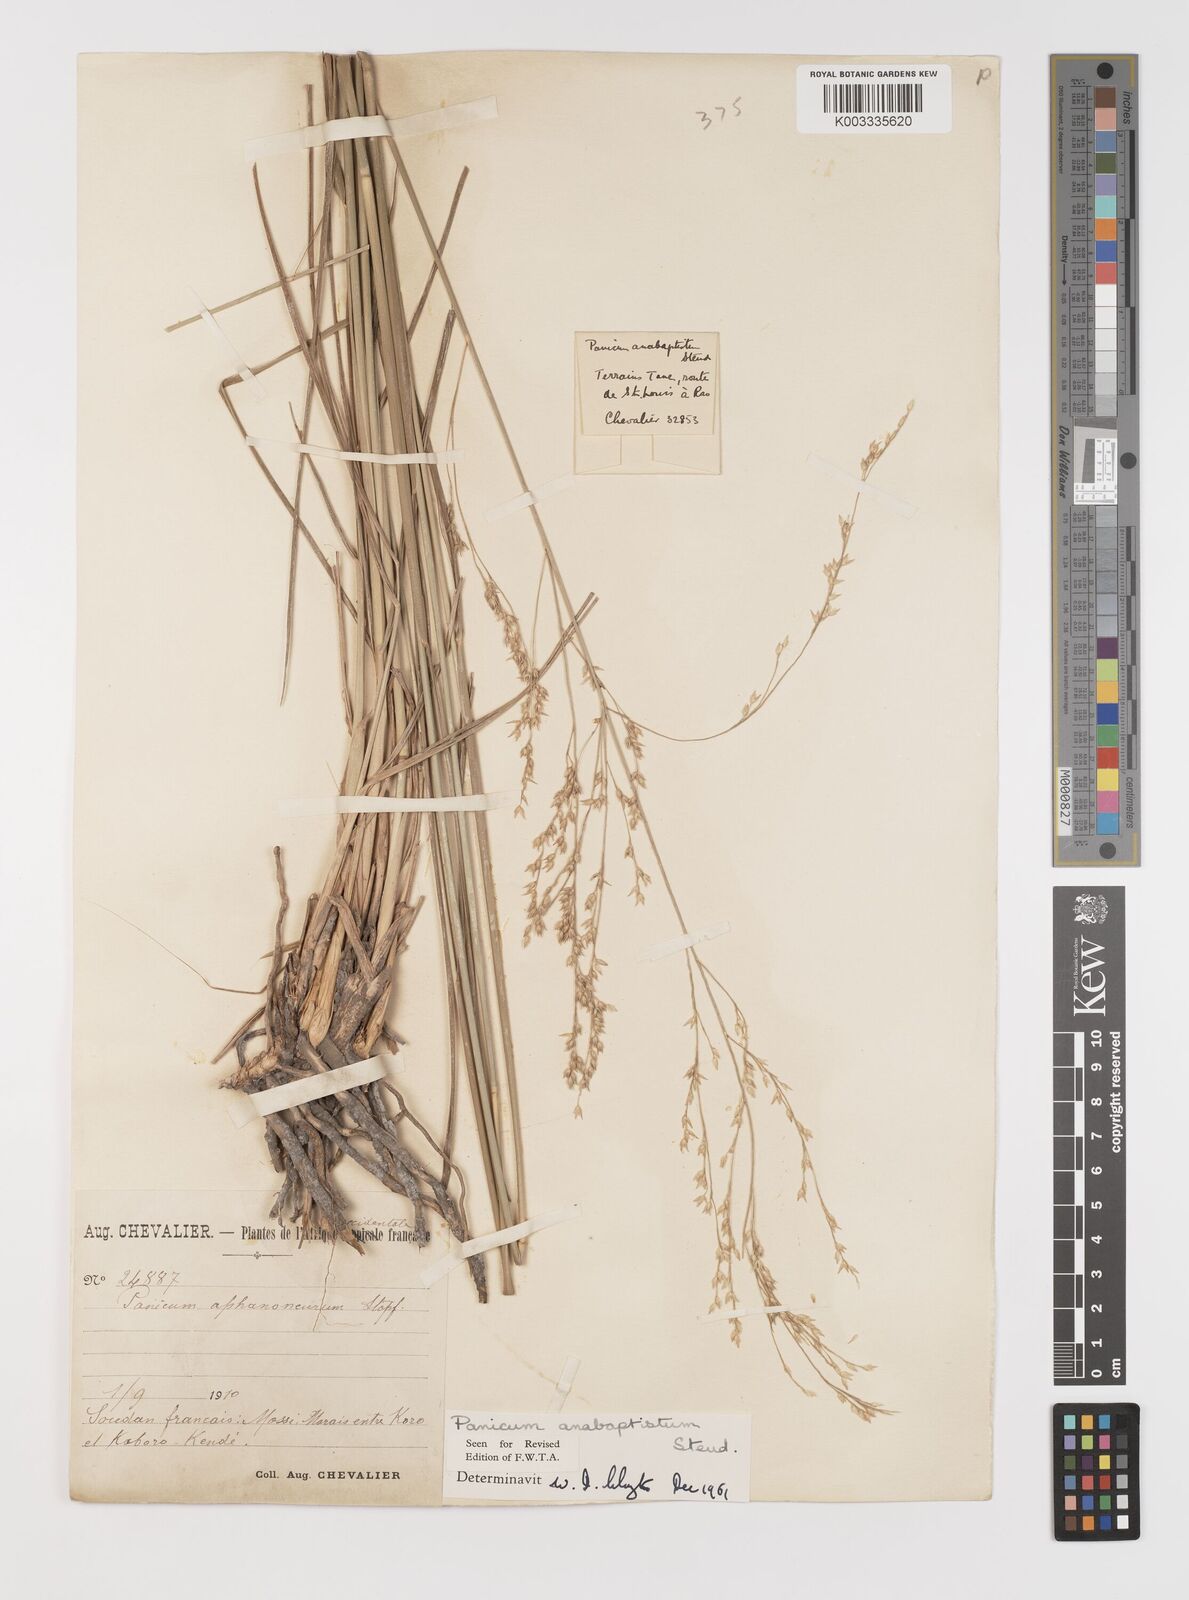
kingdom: Plantae
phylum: Tracheophyta
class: Liliopsida
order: Poales
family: Poaceae
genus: Panicum
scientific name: Panicum anabaptistum
